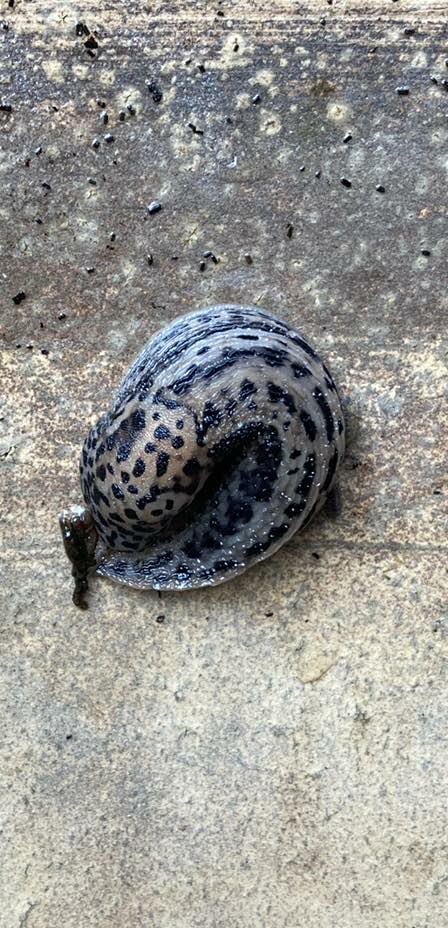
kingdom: Animalia
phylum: Mollusca
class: Gastropoda
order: Stylommatophora
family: Limacidae
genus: Limax
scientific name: Limax maximus
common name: Pantersnegl
